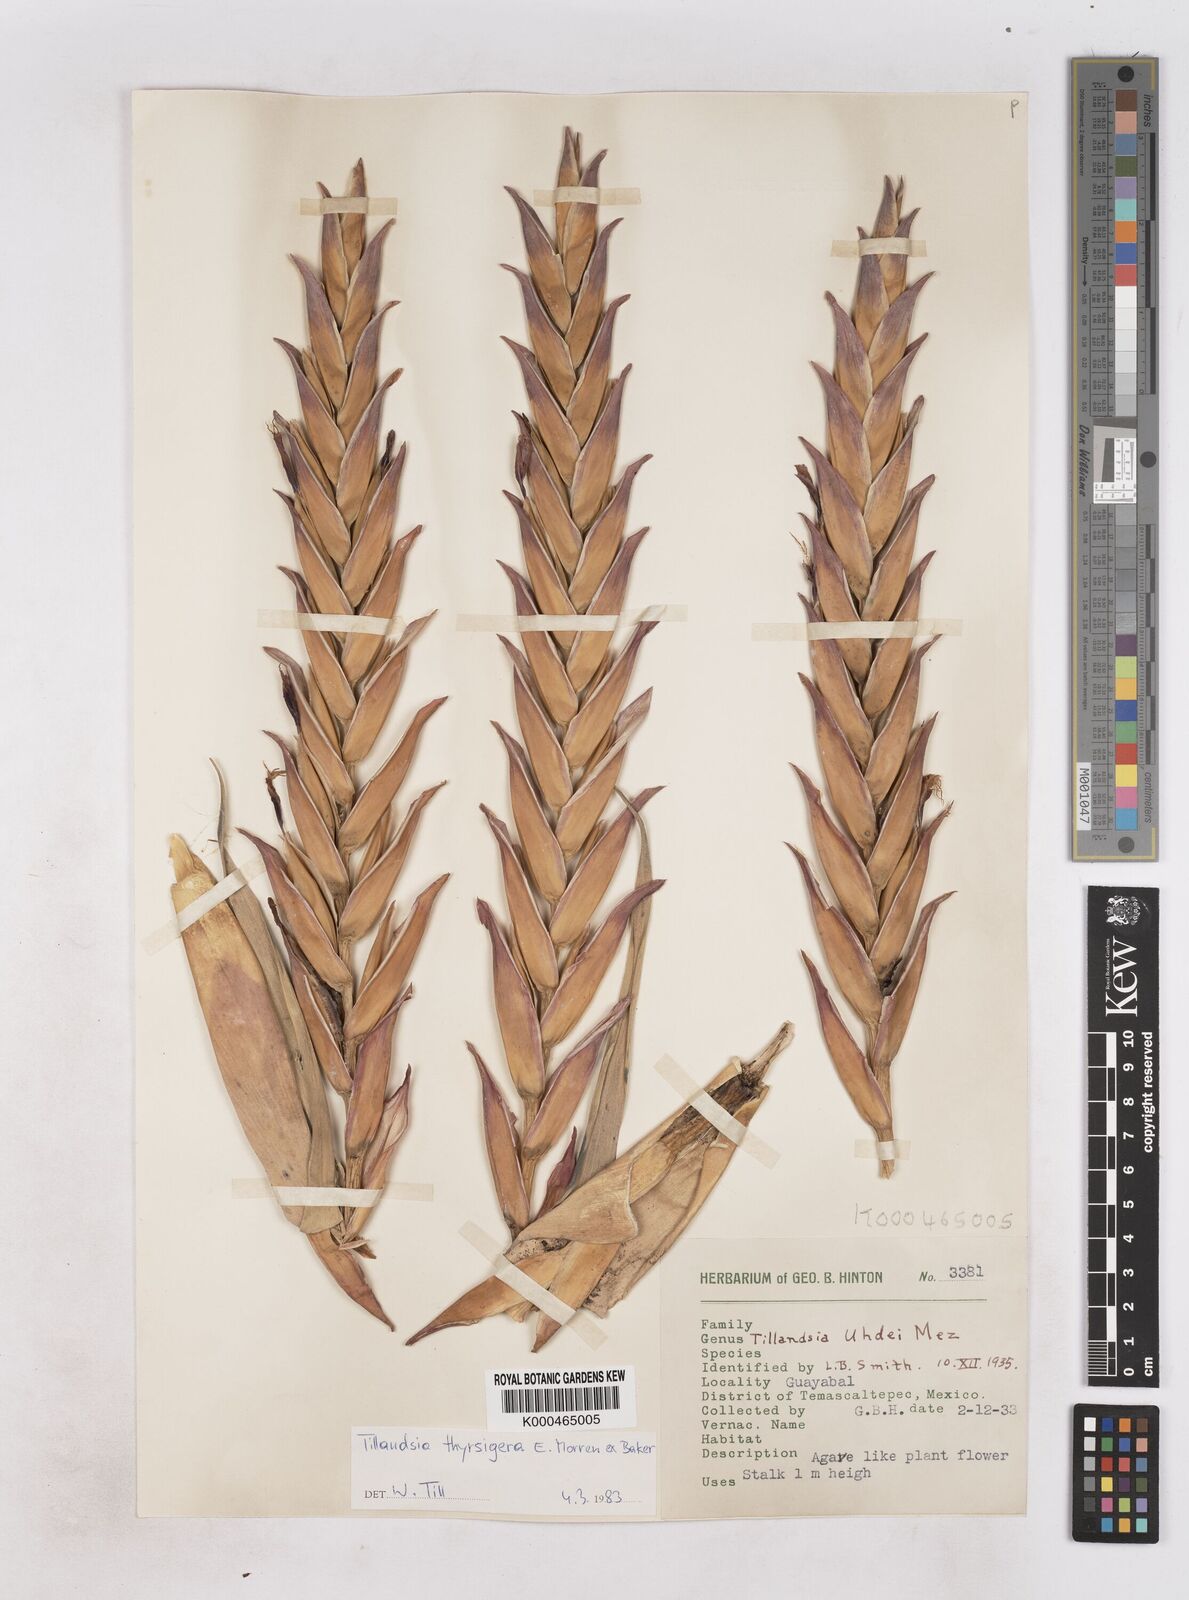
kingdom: Plantae
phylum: Tracheophyta
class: Liliopsida
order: Poales
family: Bromeliaceae
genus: Tillandsia
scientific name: Tillandsia thyrsigera
